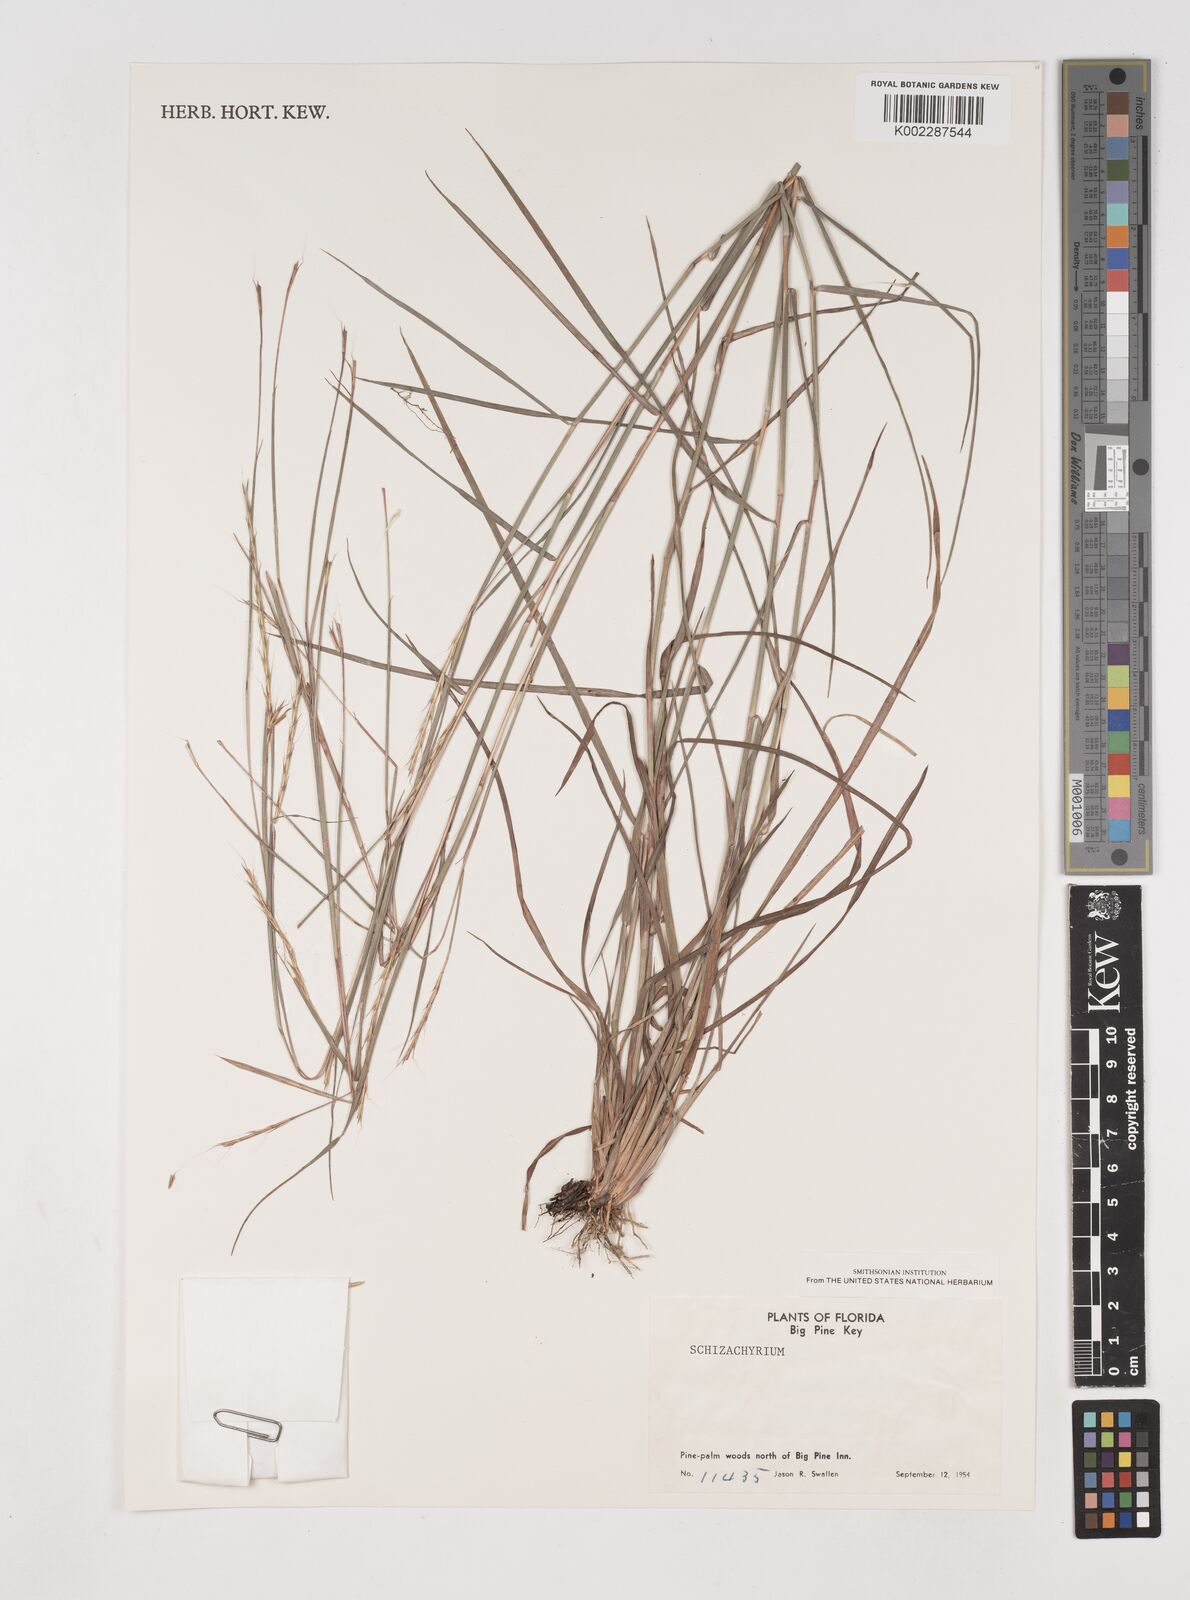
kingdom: Plantae
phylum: Tracheophyta
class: Liliopsida
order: Poales
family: Poaceae
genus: Schizachyrium
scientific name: Schizachyrium
